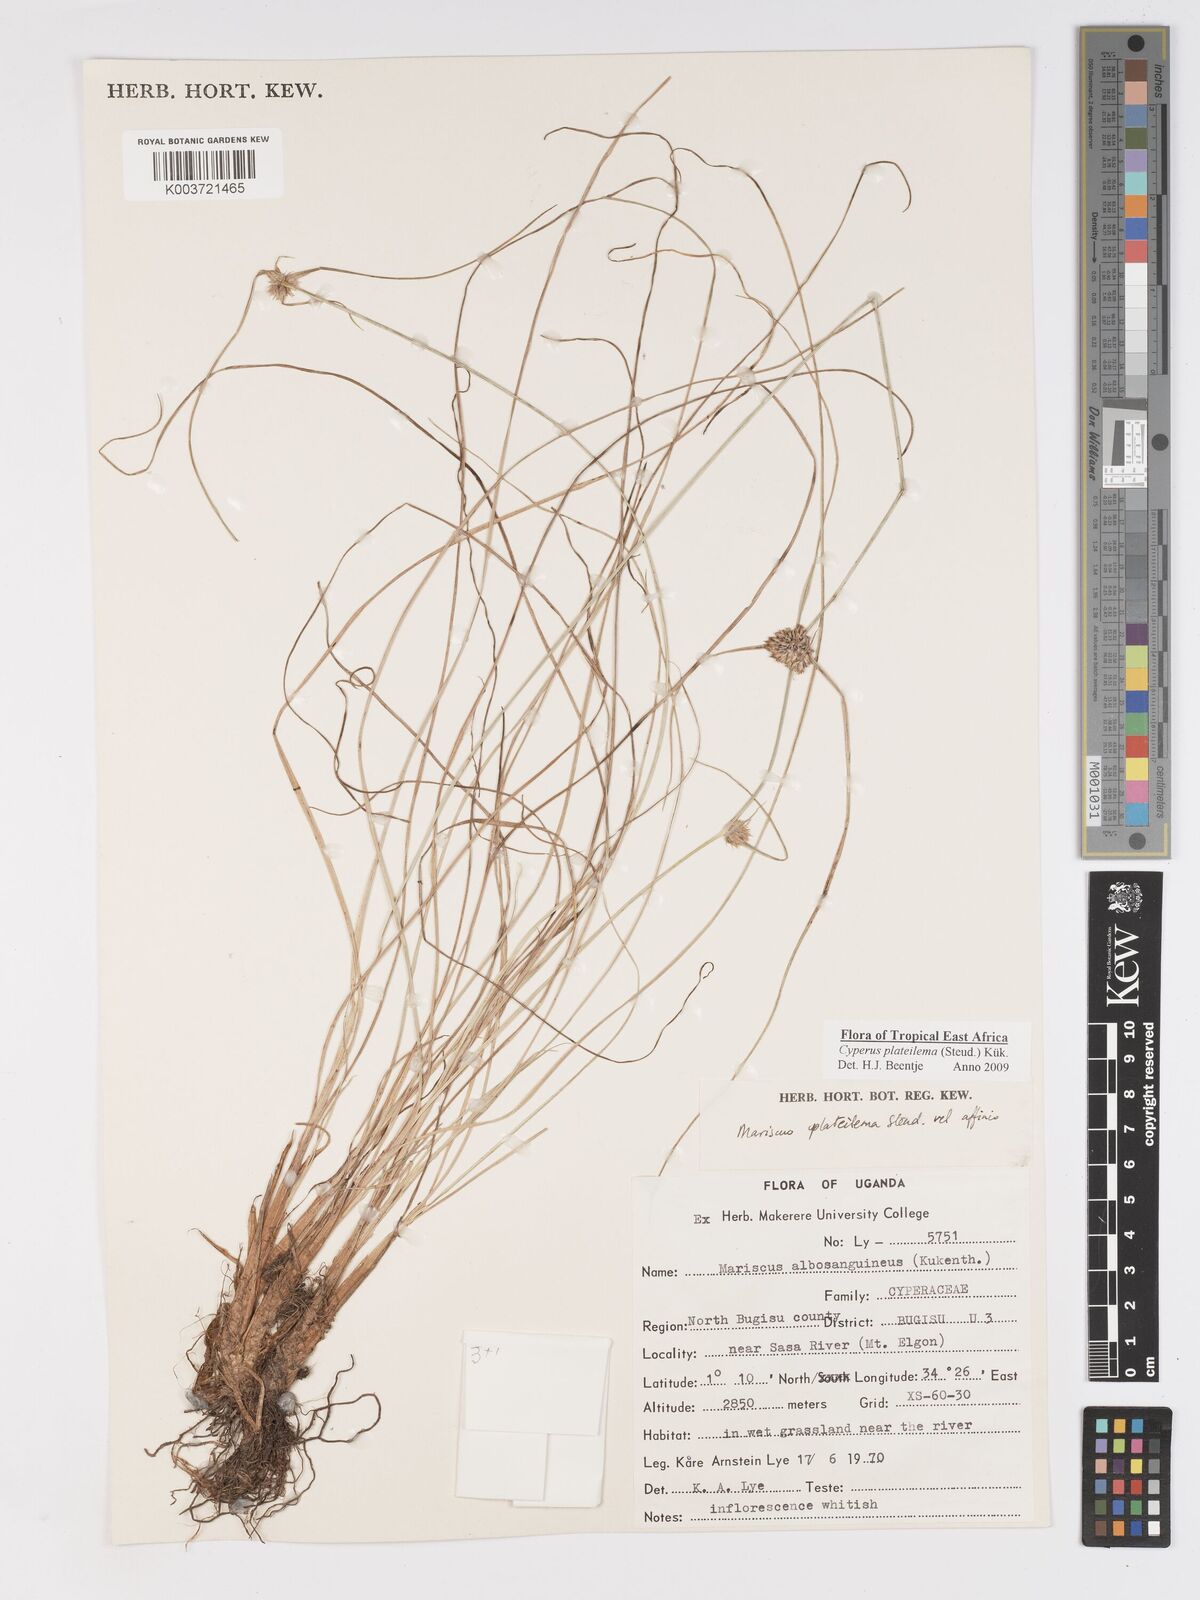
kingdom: Plantae
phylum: Tracheophyta
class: Liliopsida
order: Poales
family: Cyperaceae
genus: Cyperus
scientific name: Cyperus plateilema
